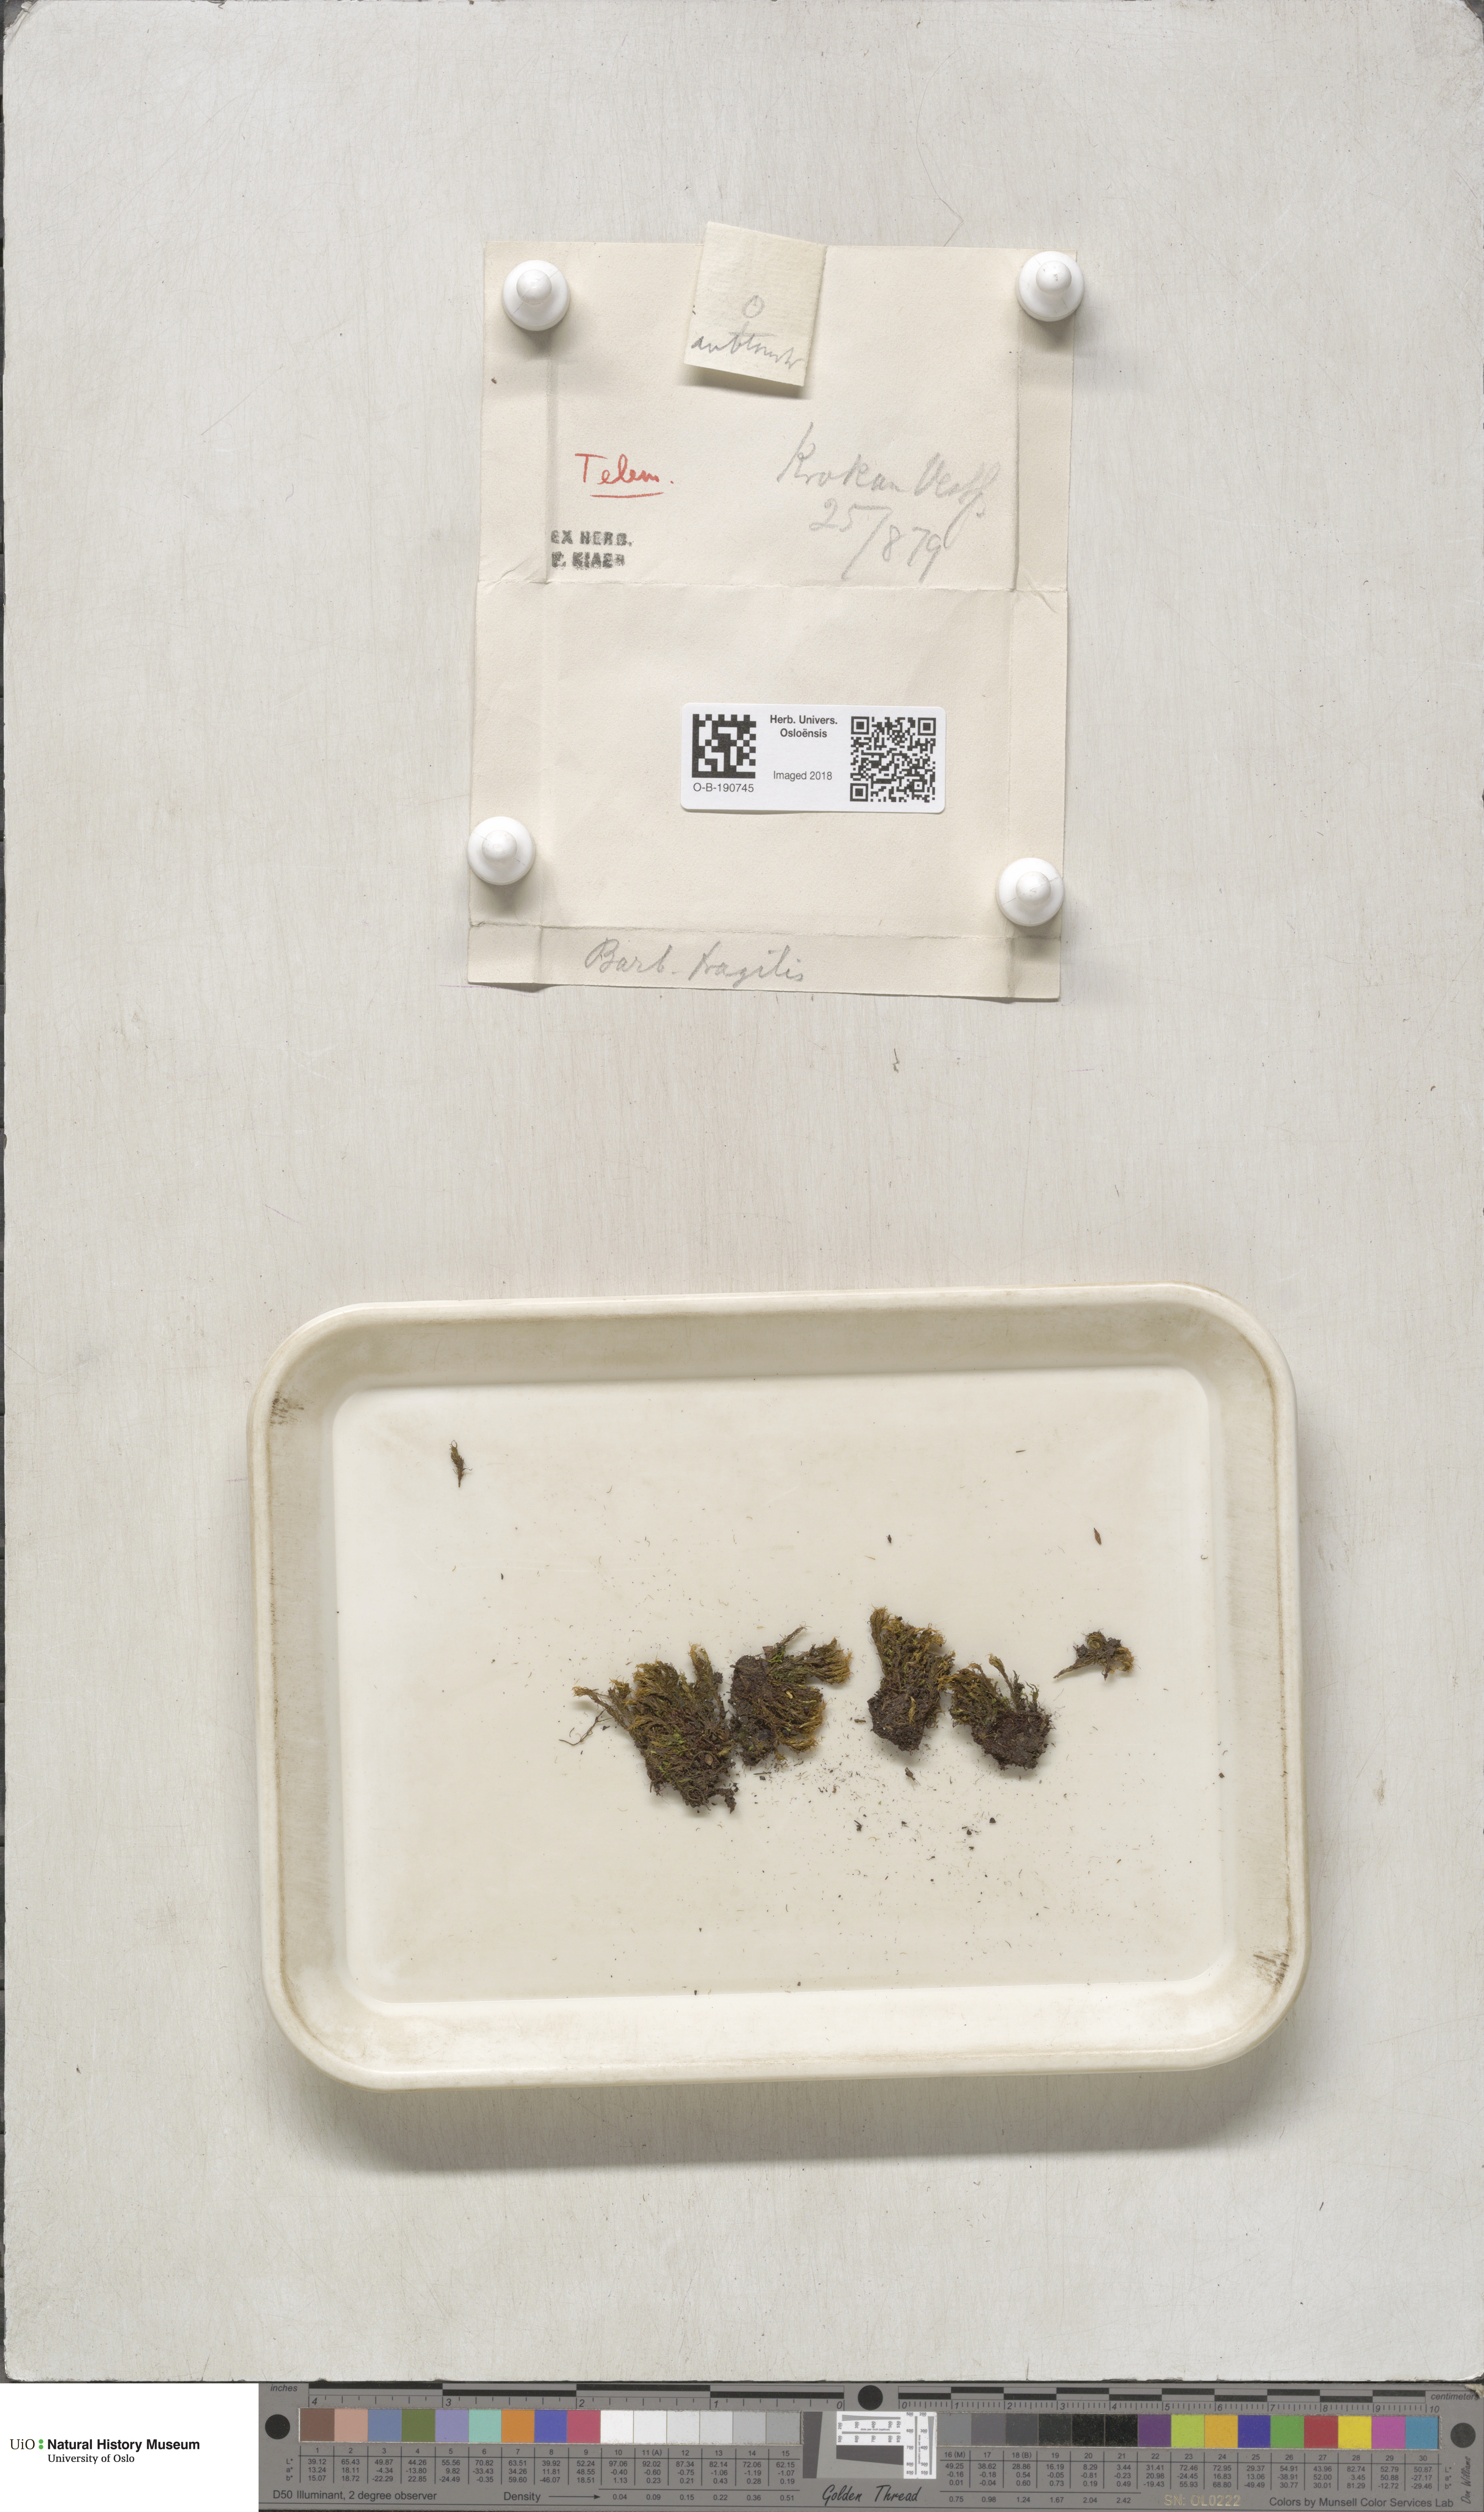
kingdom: Plantae
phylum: Bryophyta
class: Bryopsida
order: Pottiales
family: Pottiaceae
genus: Tortella
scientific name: Tortella fragilis
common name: Fragile twisted moss
